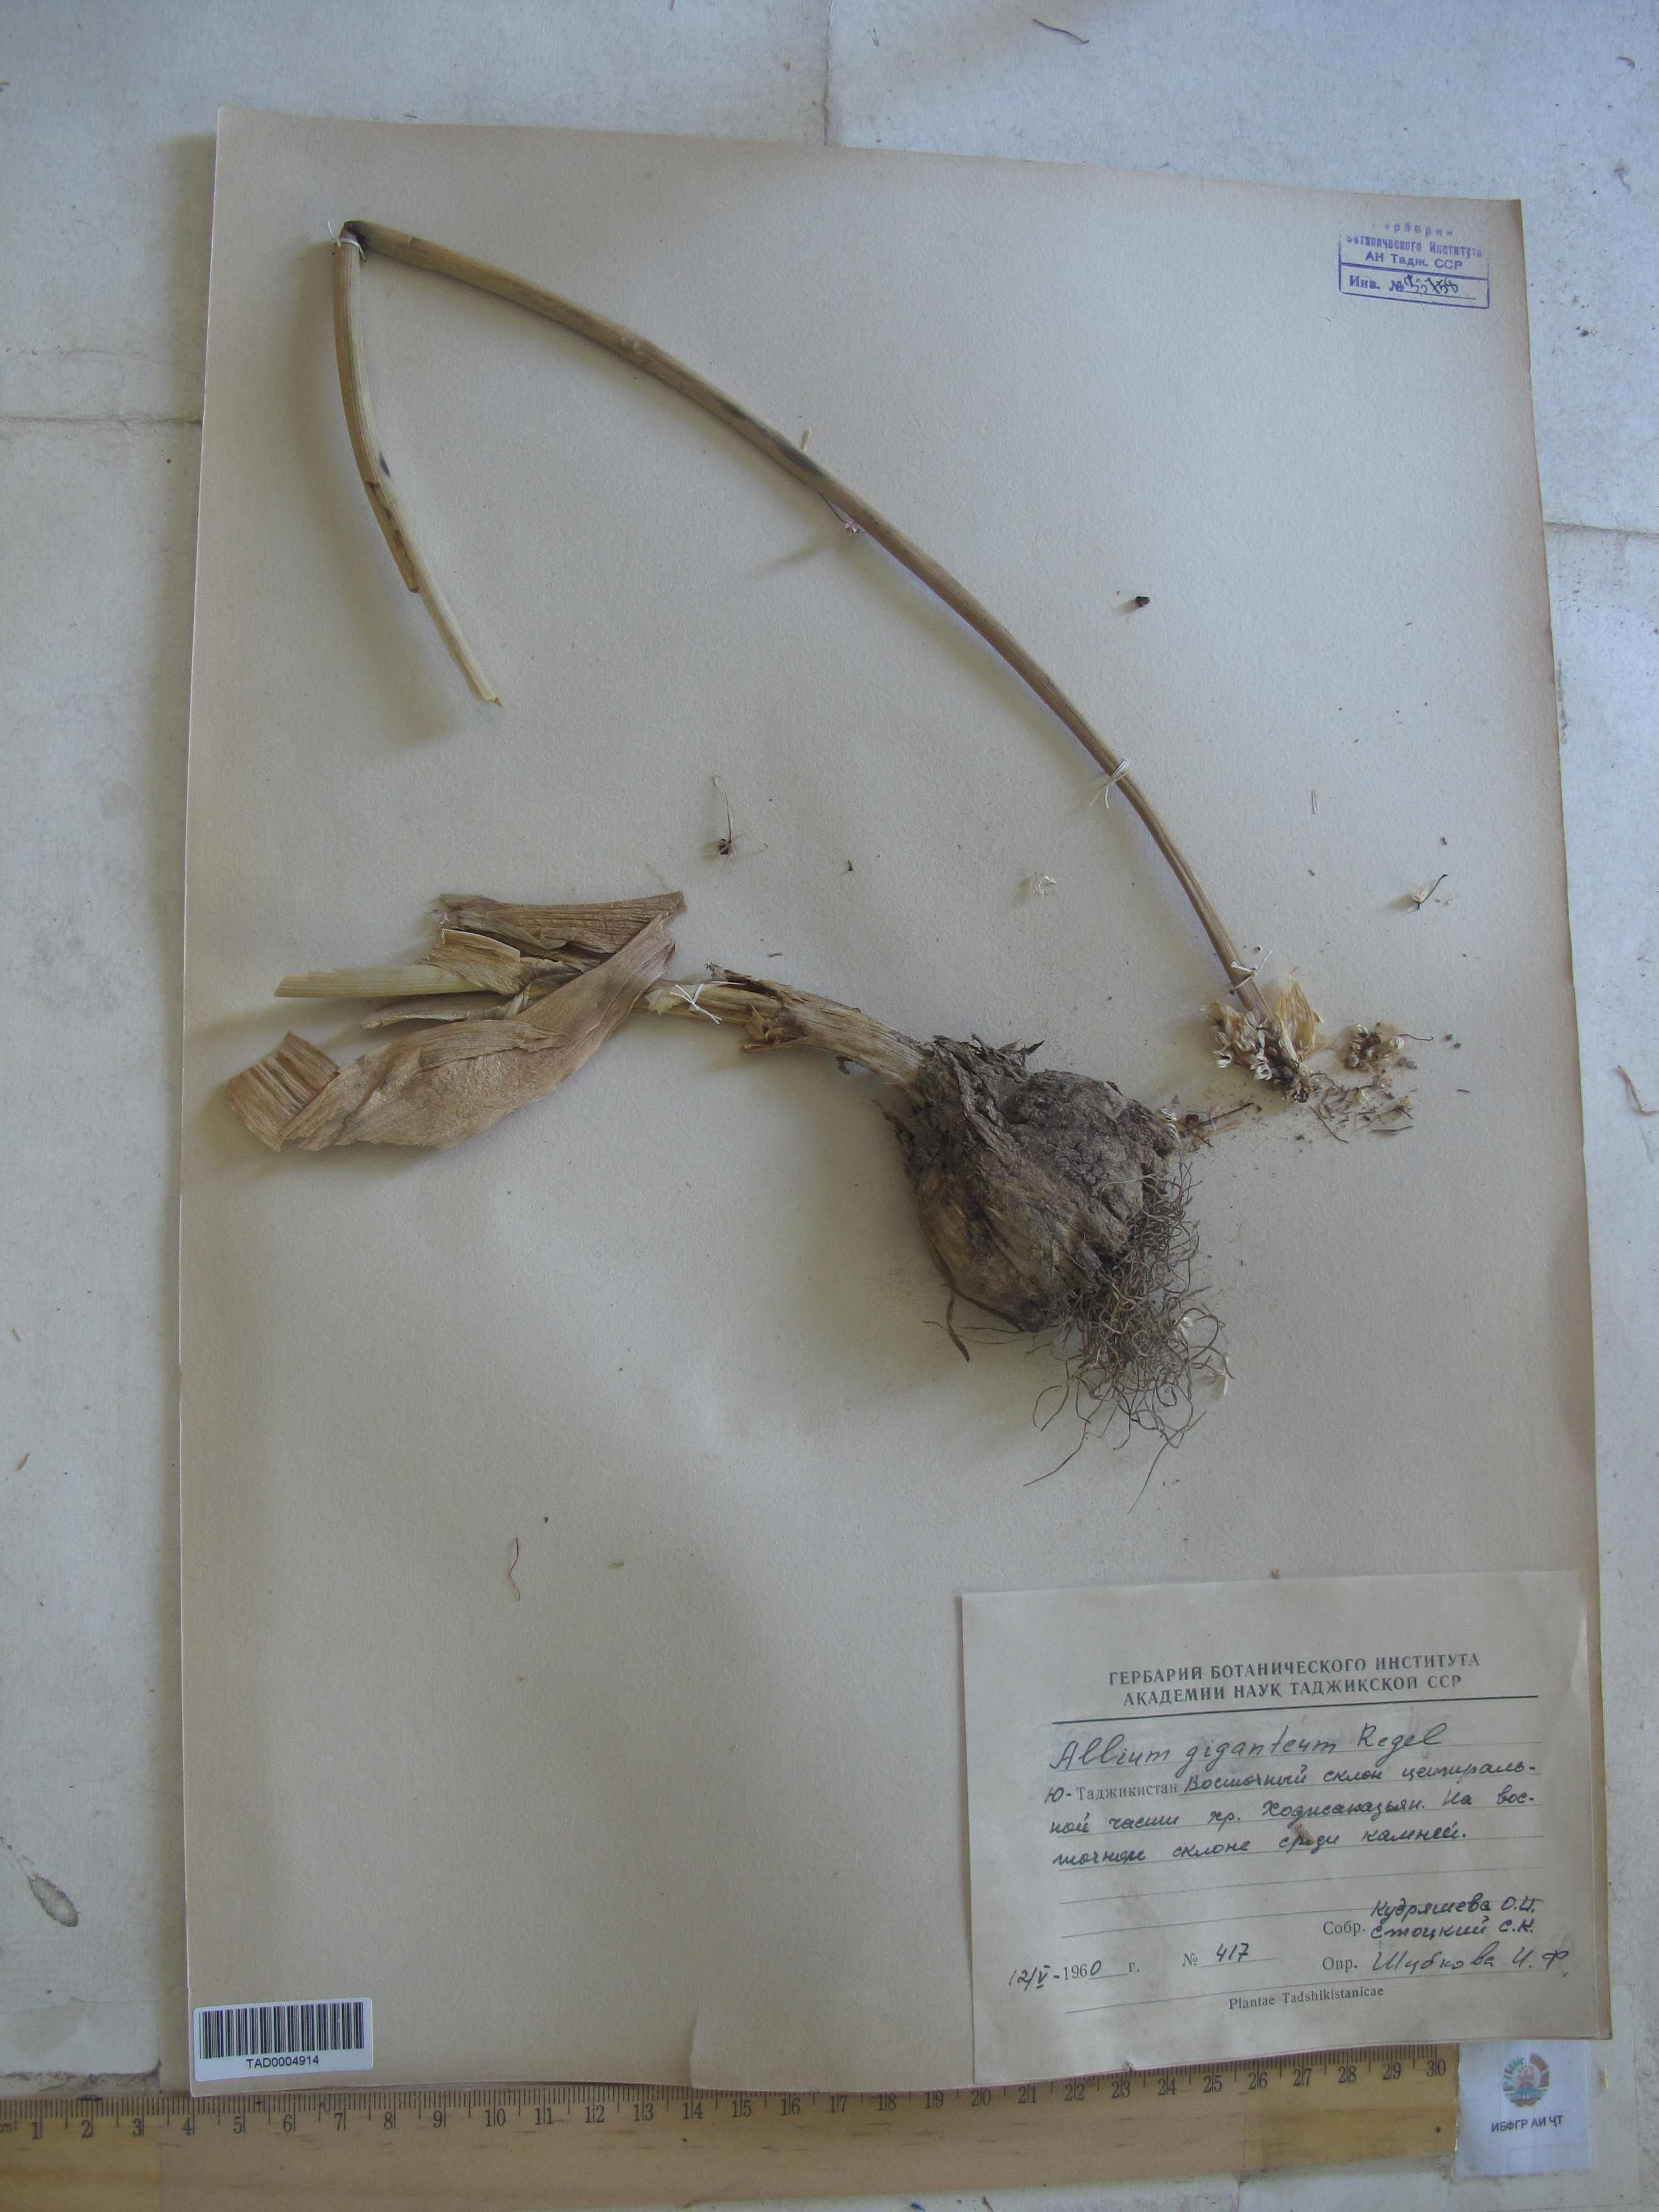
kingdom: Plantae
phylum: Tracheophyta
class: Liliopsida
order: Asparagales
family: Amaryllidaceae
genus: Allium
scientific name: Allium giganteum
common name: Giant onion
